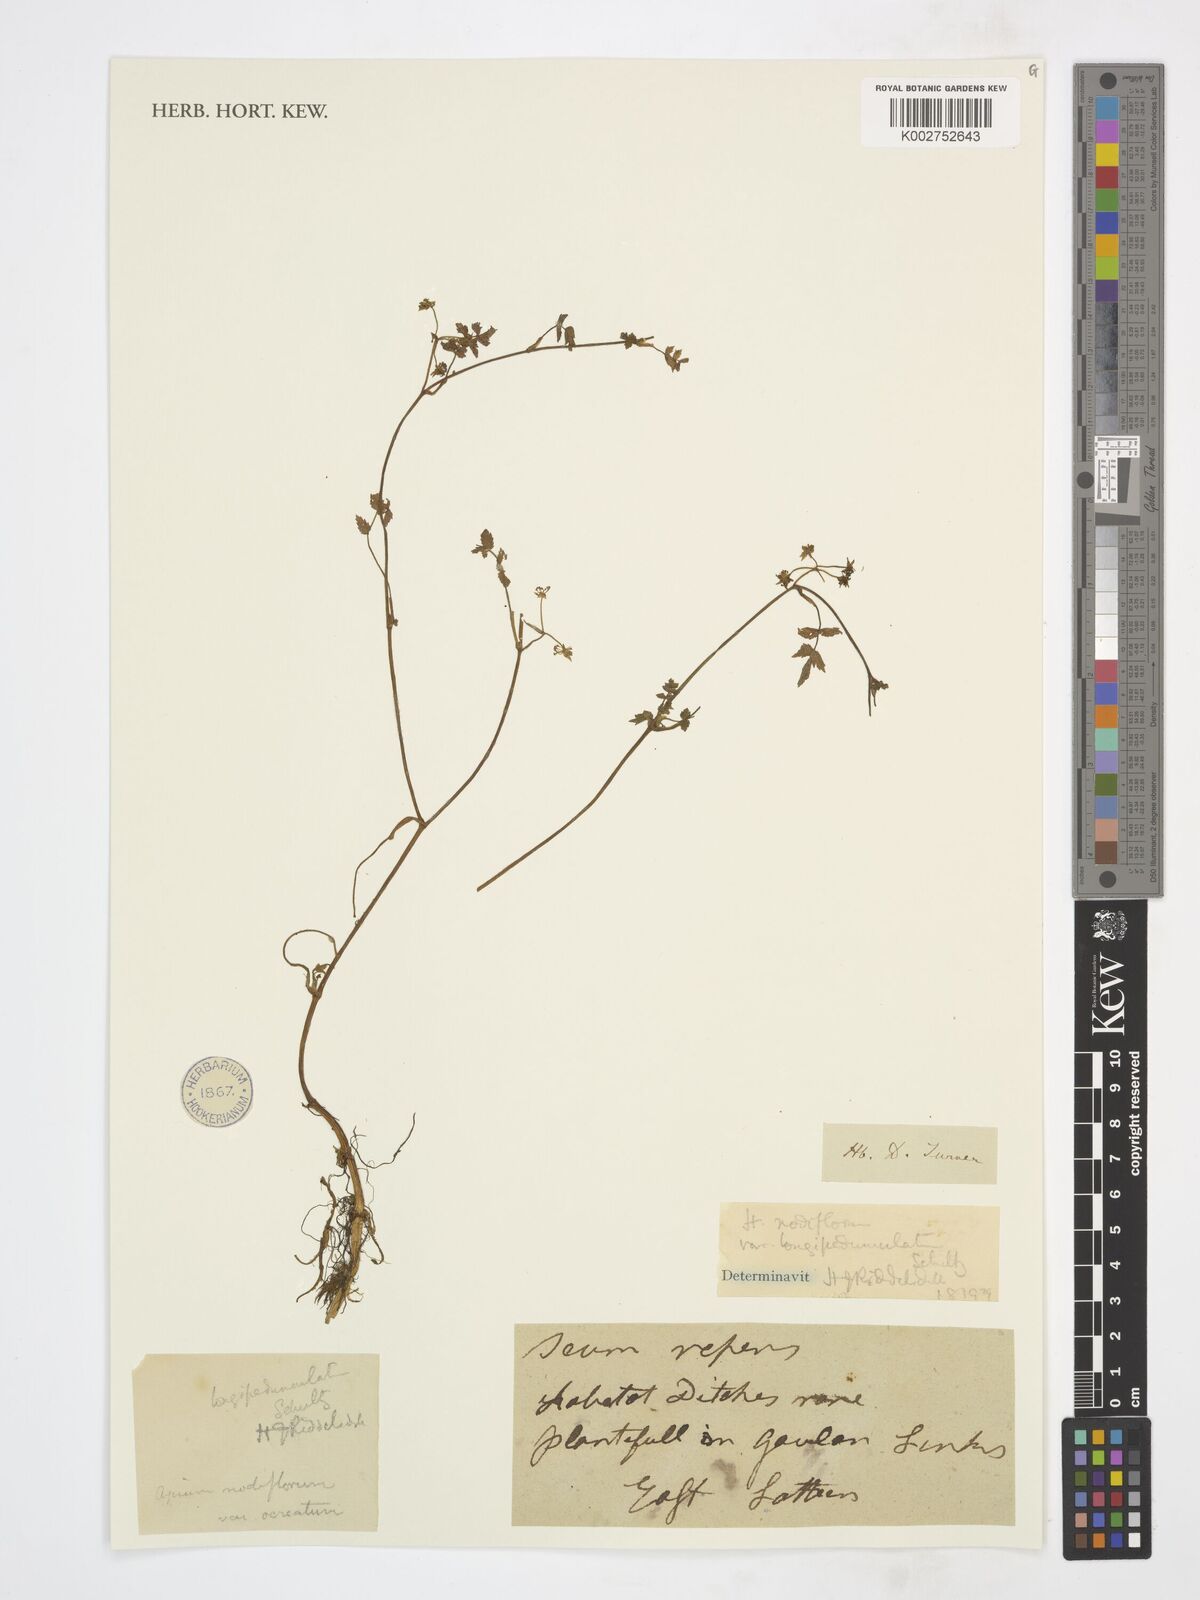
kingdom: Plantae
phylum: Tracheophyta
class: Magnoliopsida
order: Apiales
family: Apiaceae
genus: Helosciadium
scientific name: Helosciadium longipedunculatum
